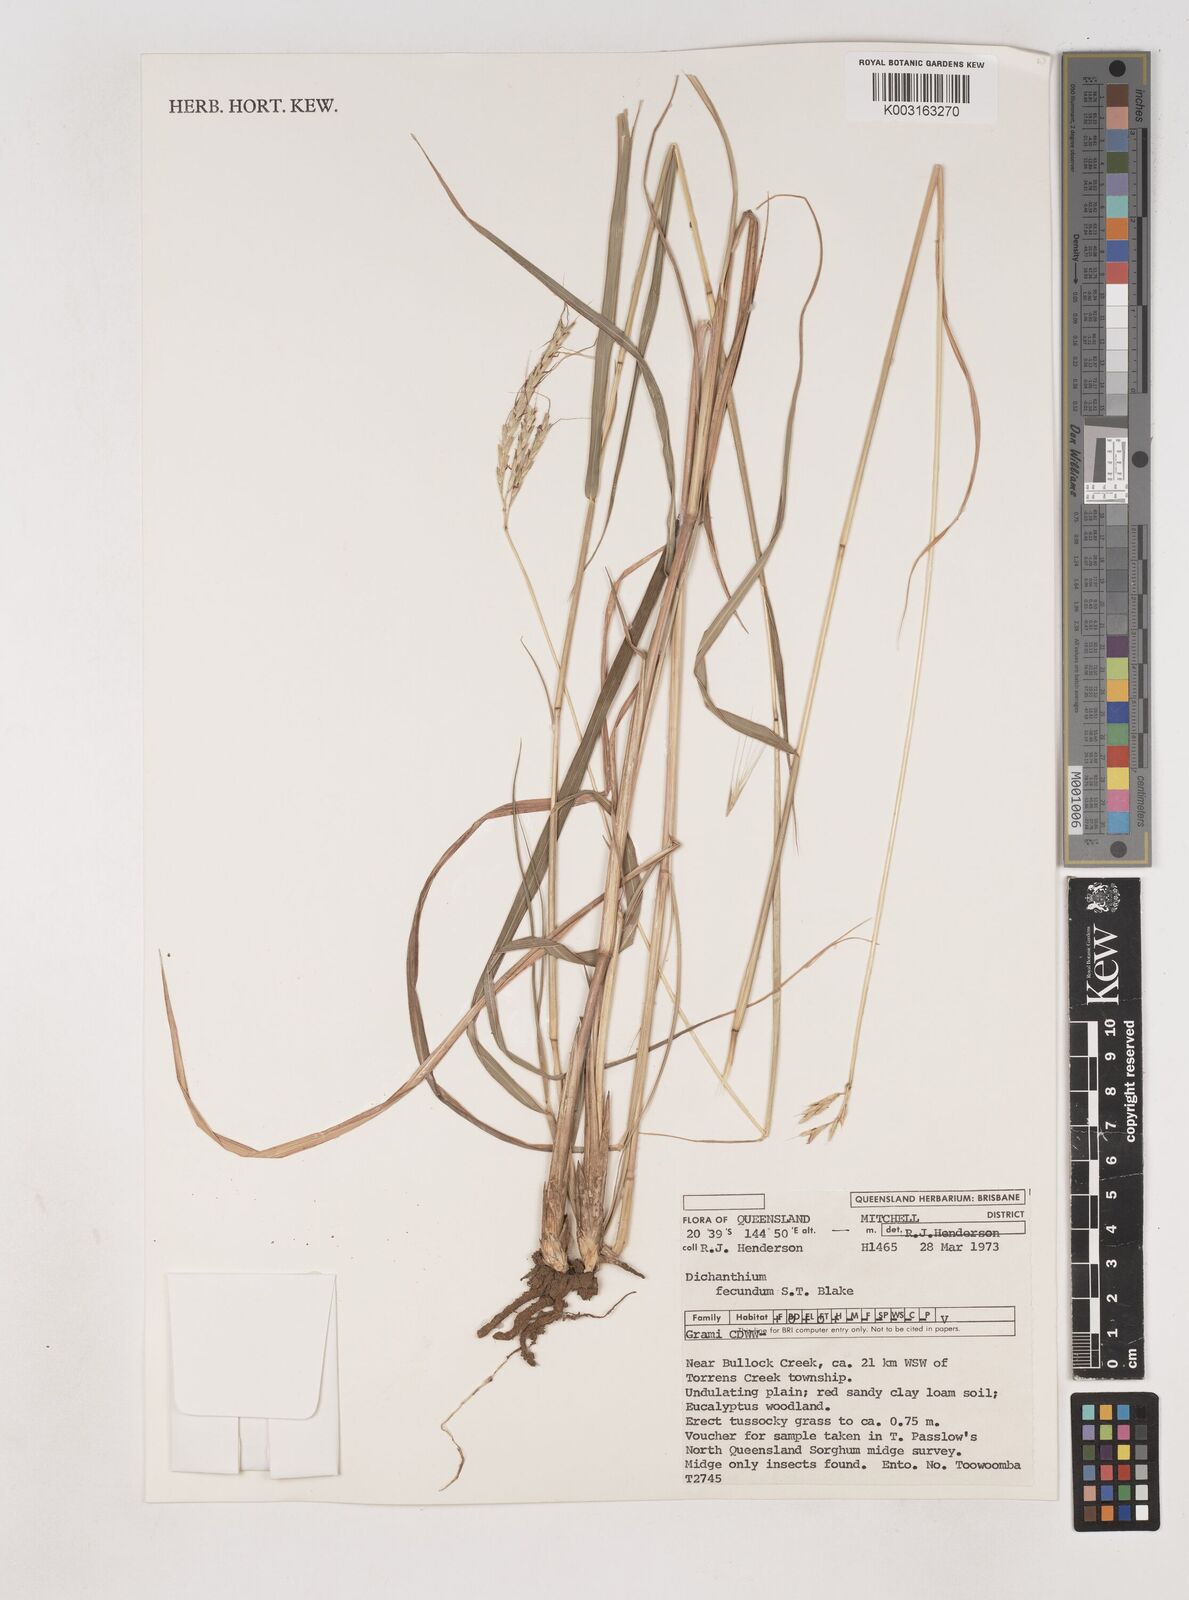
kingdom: Plantae
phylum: Tracheophyta
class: Liliopsida
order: Poales
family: Poaceae
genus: Dichanthium
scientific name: Dichanthium fecundum
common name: Bundle-bundle
